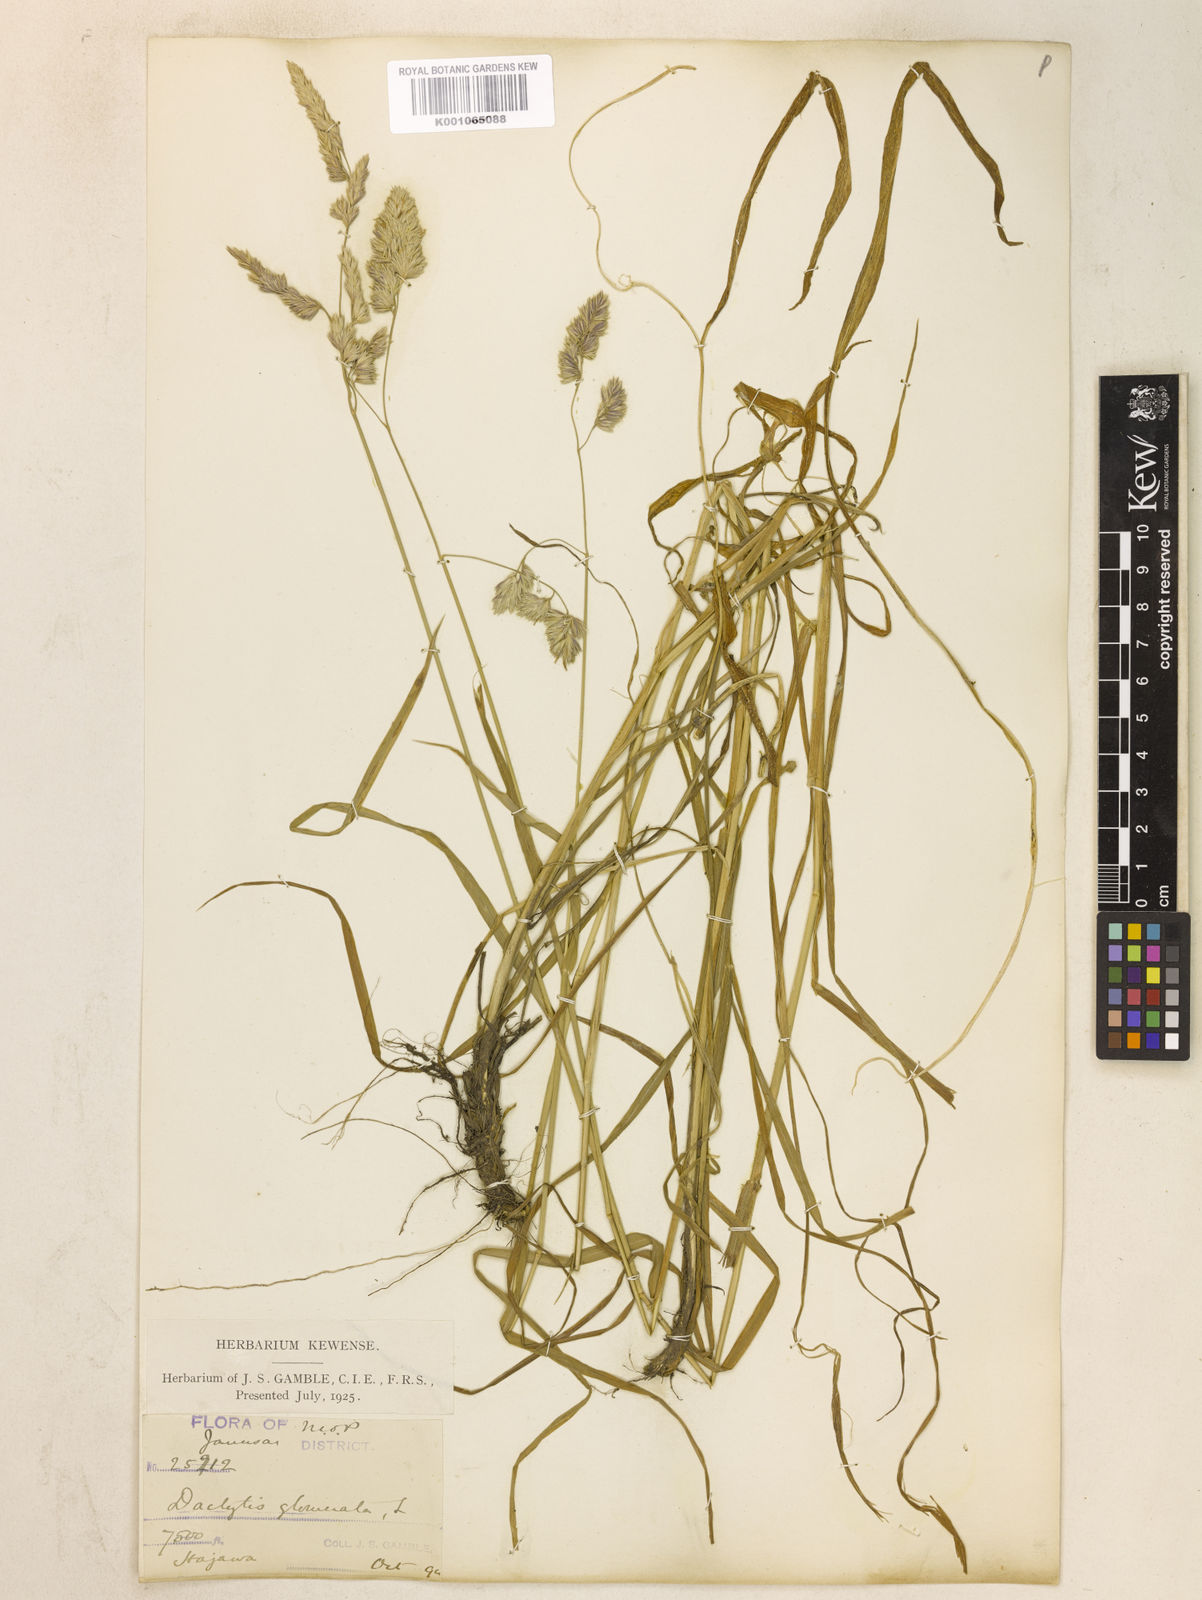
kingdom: Plantae
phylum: Tracheophyta
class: Liliopsida
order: Poales
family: Poaceae
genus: Dactylis
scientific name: Dactylis glomerata
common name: Orchardgrass
